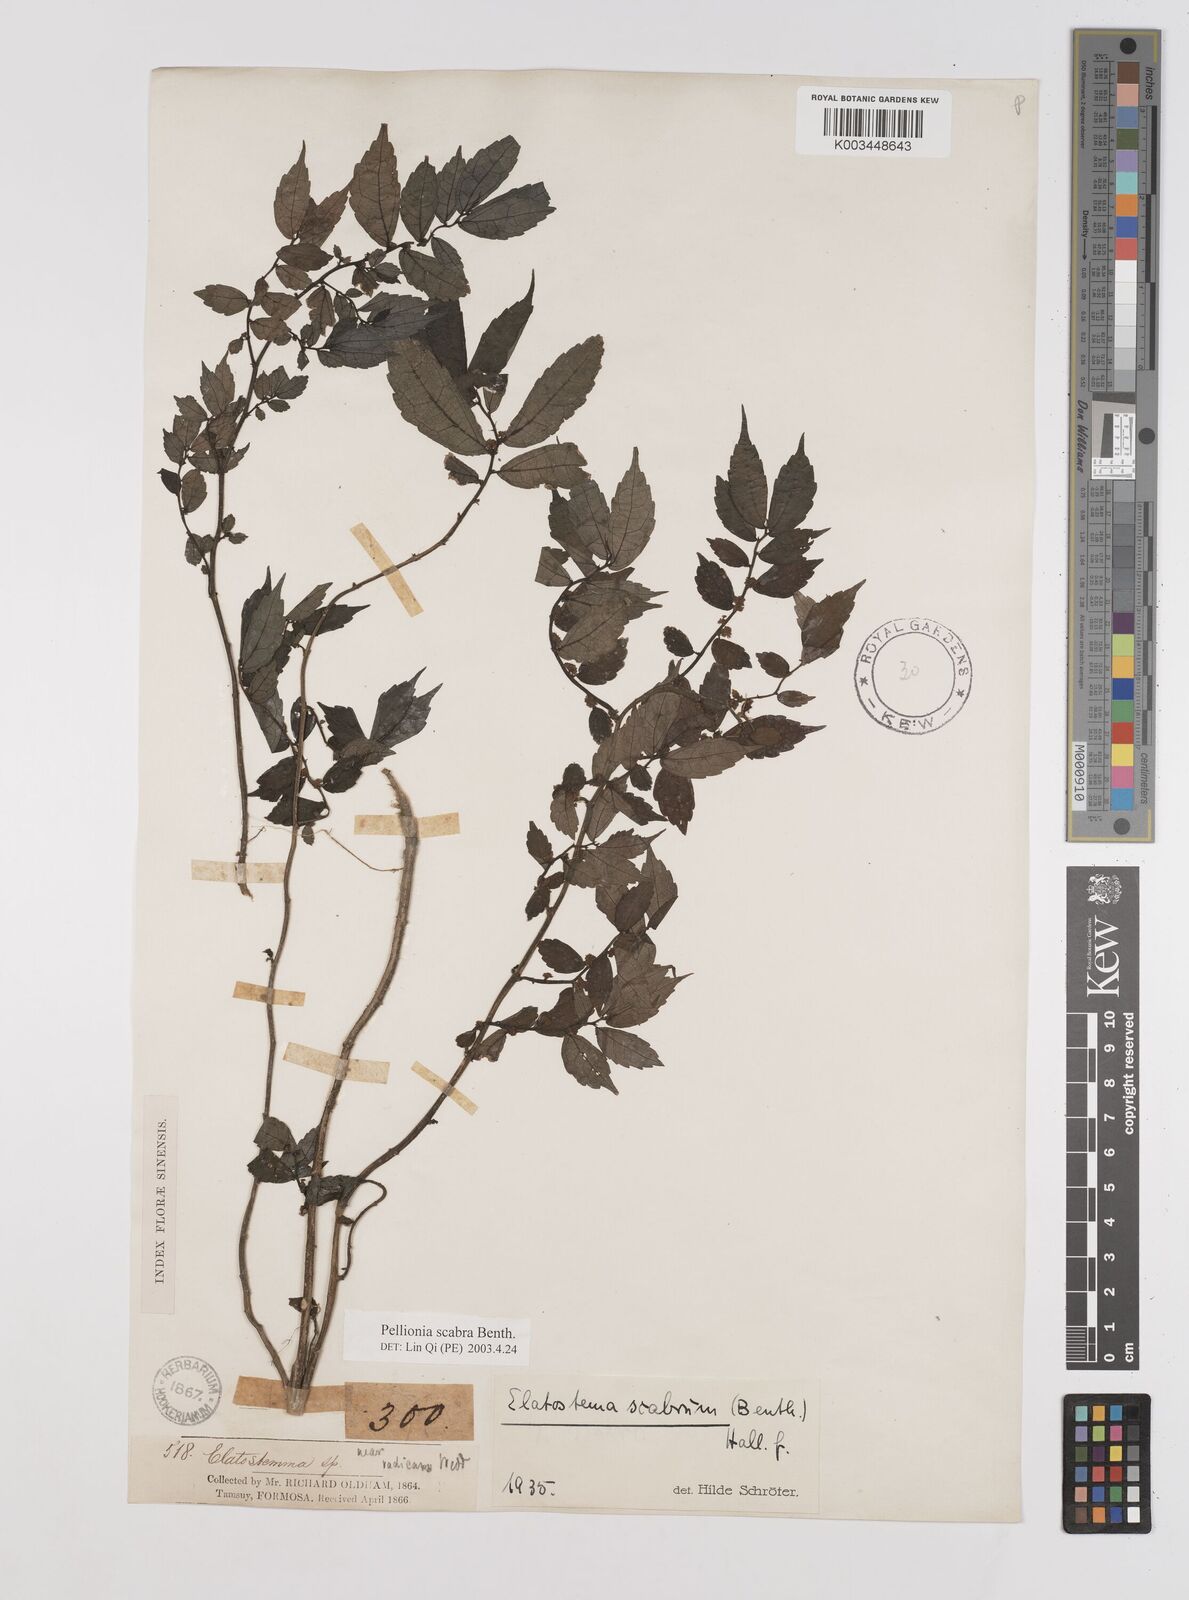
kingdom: Plantae
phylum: Tracheophyta
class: Magnoliopsida
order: Rosales
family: Urticaceae
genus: Elatostema
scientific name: Elatostema
